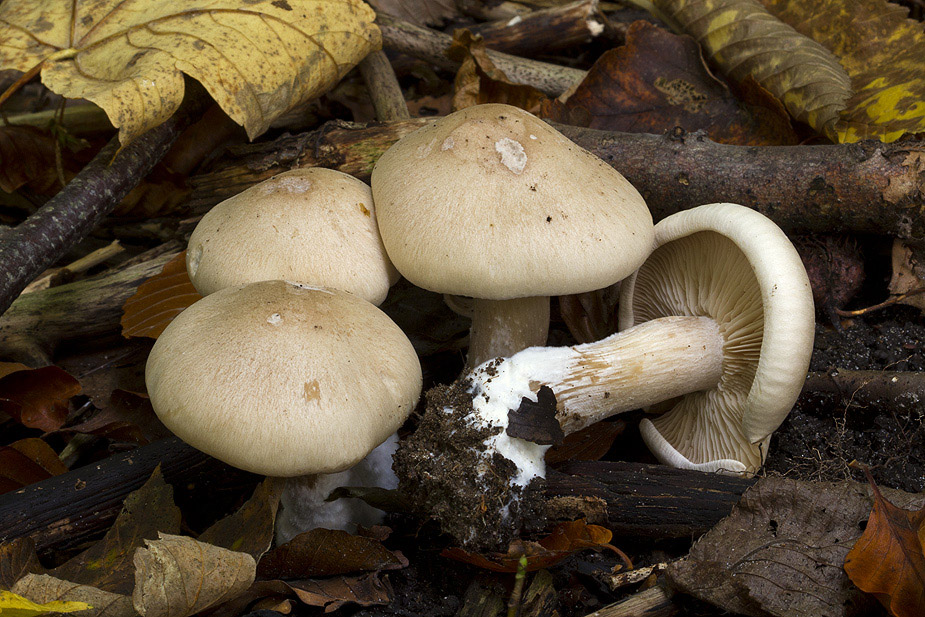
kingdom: Fungi
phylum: Basidiomycota
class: Agaricomycetes
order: Agaricales
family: Tricholomataceae
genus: Lepista
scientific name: Lepista irina
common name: violduftende hekseringshat
